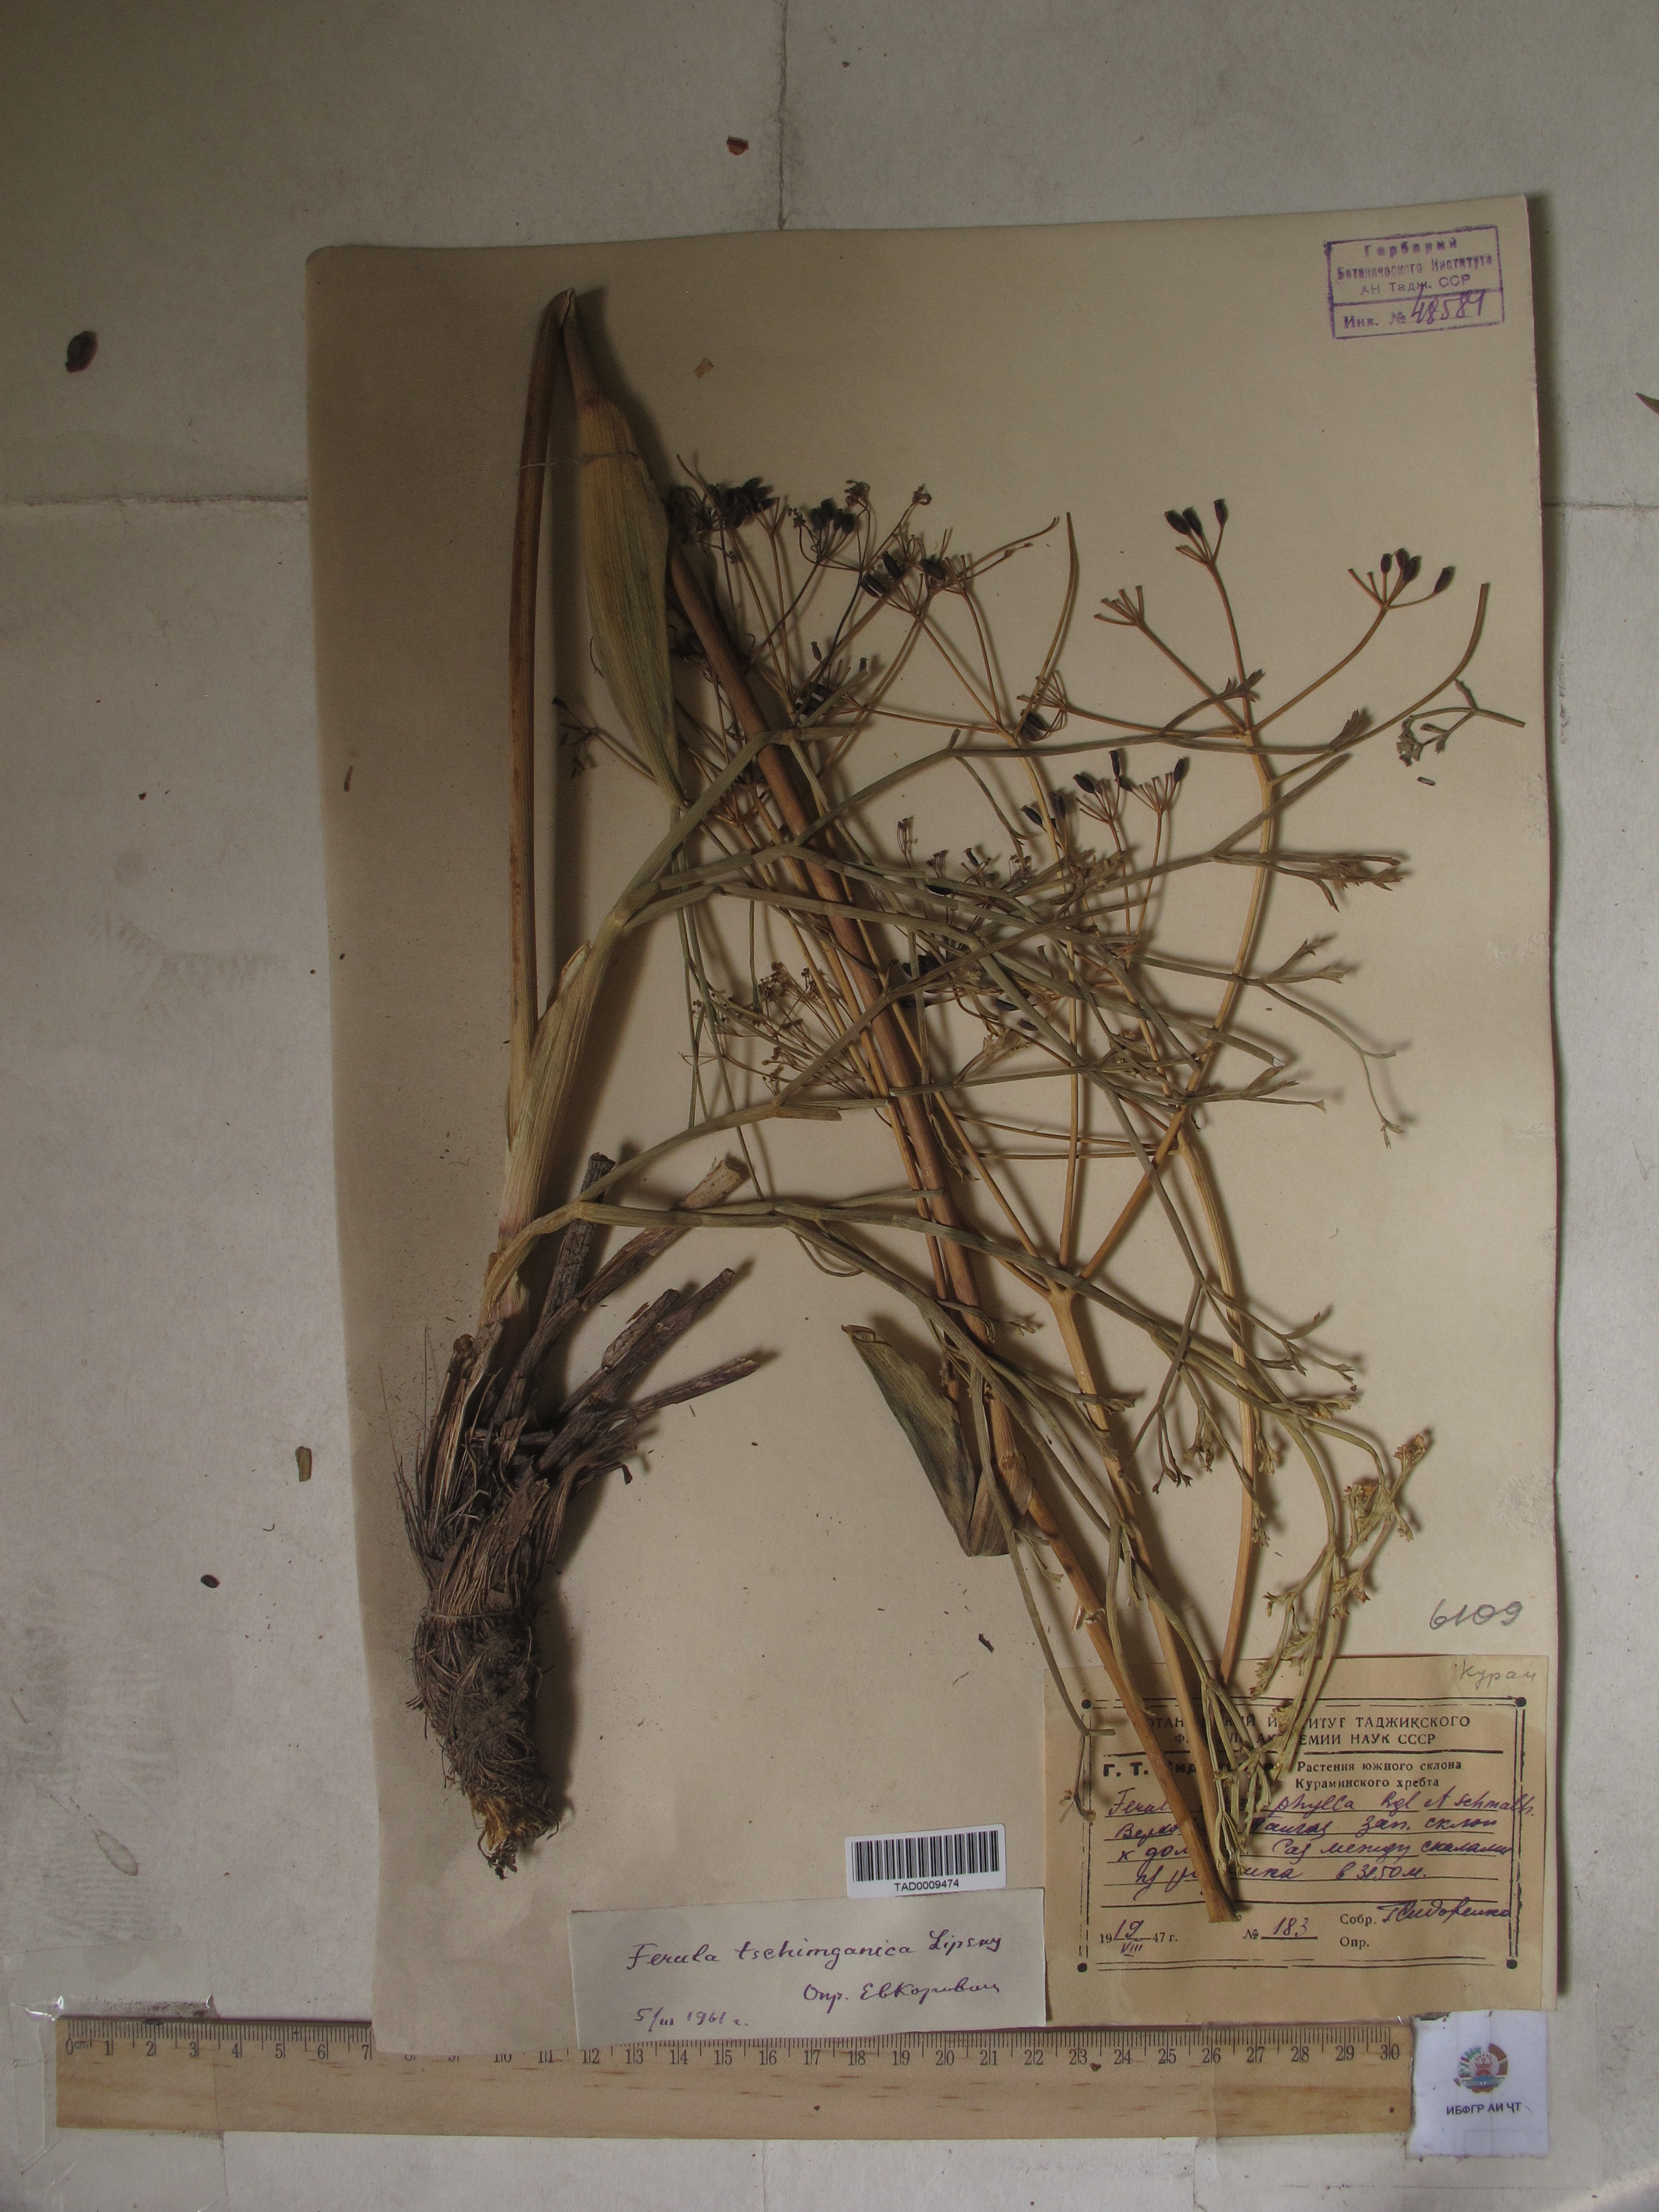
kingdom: Plantae
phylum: Tracheophyta
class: Magnoliopsida
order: Apiales
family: Apiaceae
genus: Ferula
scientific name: Ferula tschimganica
